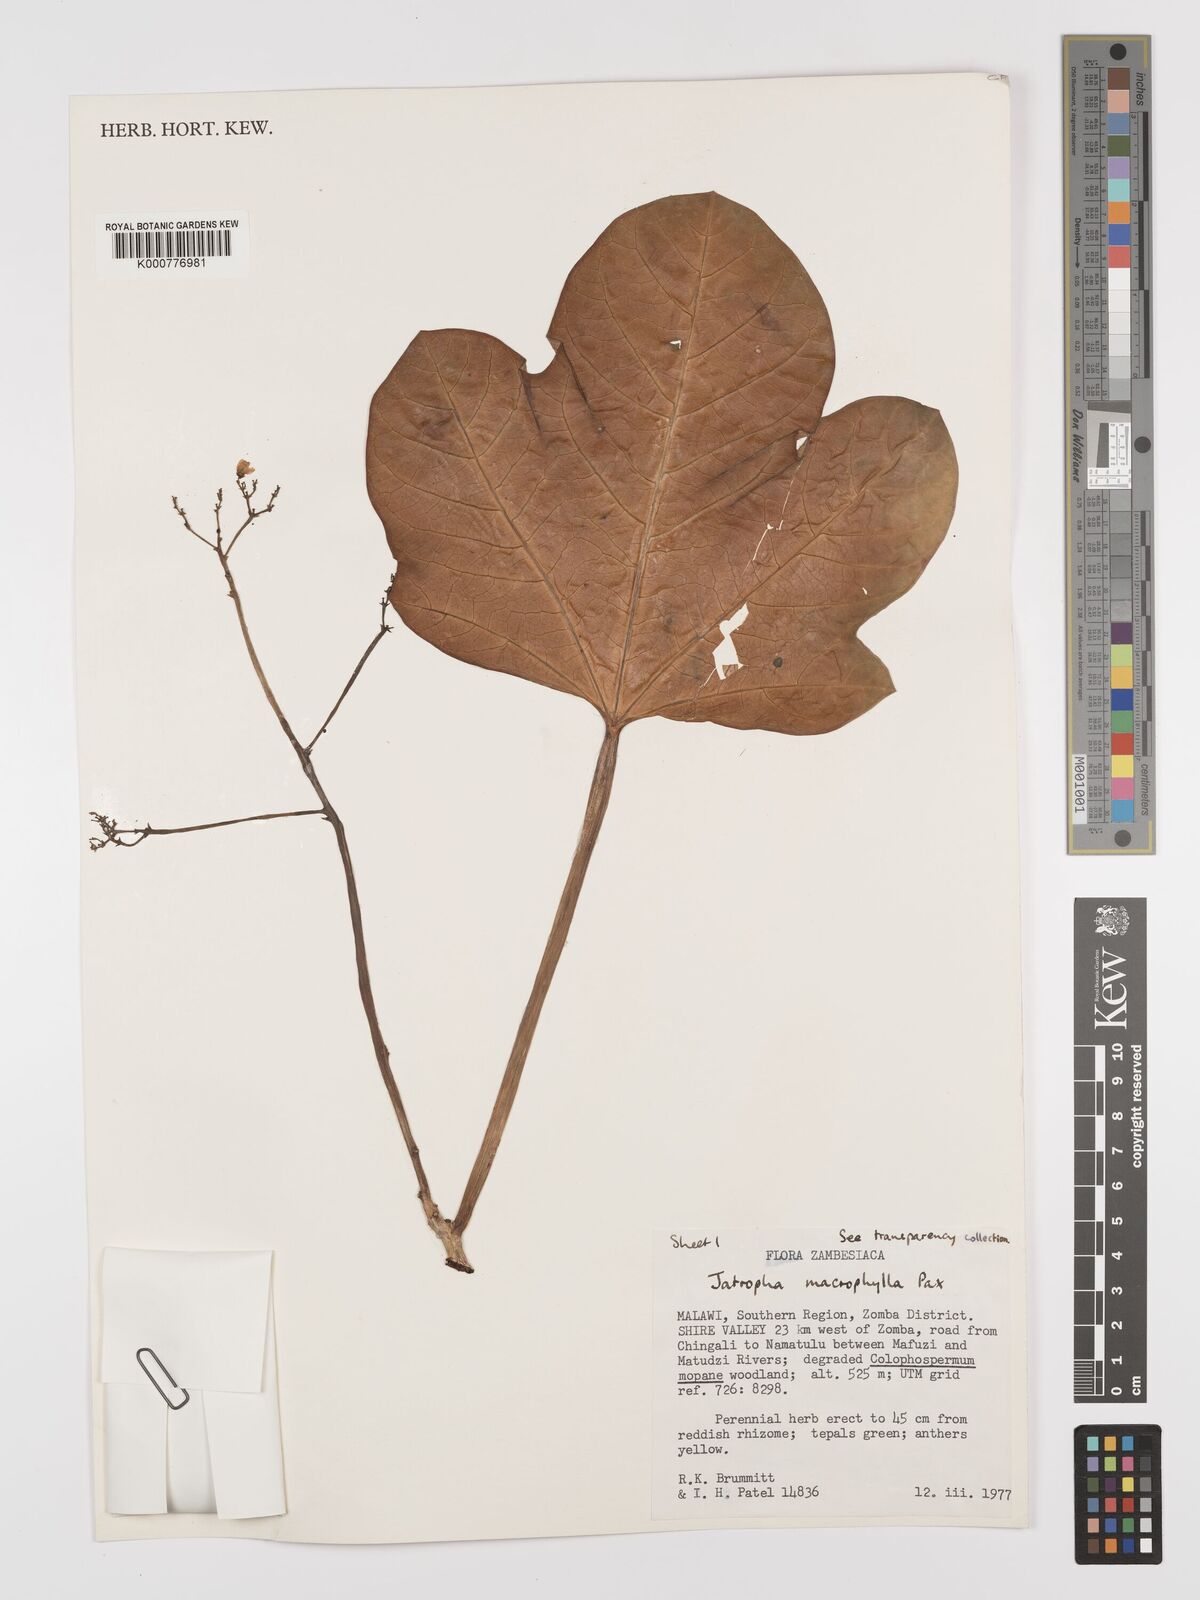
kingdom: Plantae
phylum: Tracheophyta
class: Magnoliopsida
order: Malpighiales
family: Euphorbiaceae
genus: Jatropha
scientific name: Jatropha macrophylla
